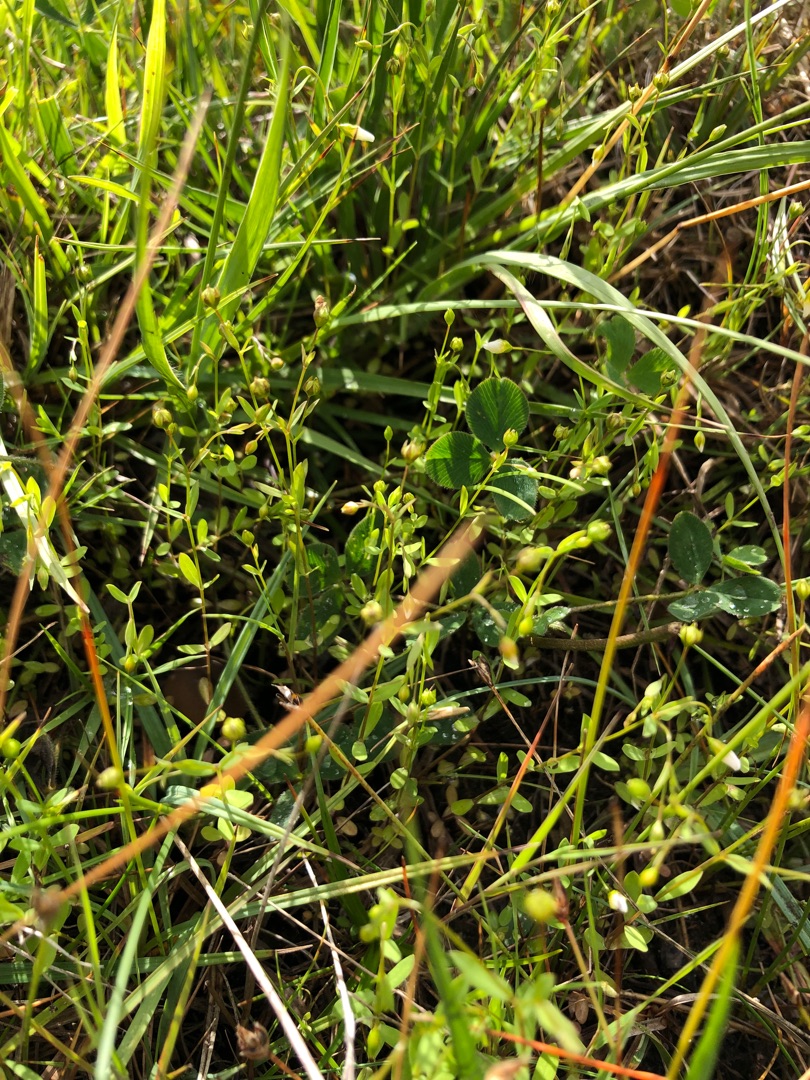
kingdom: Plantae
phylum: Tracheophyta
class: Magnoliopsida
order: Malpighiales
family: Linaceae
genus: Linum
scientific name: Linum catharticum
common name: Vild hør
